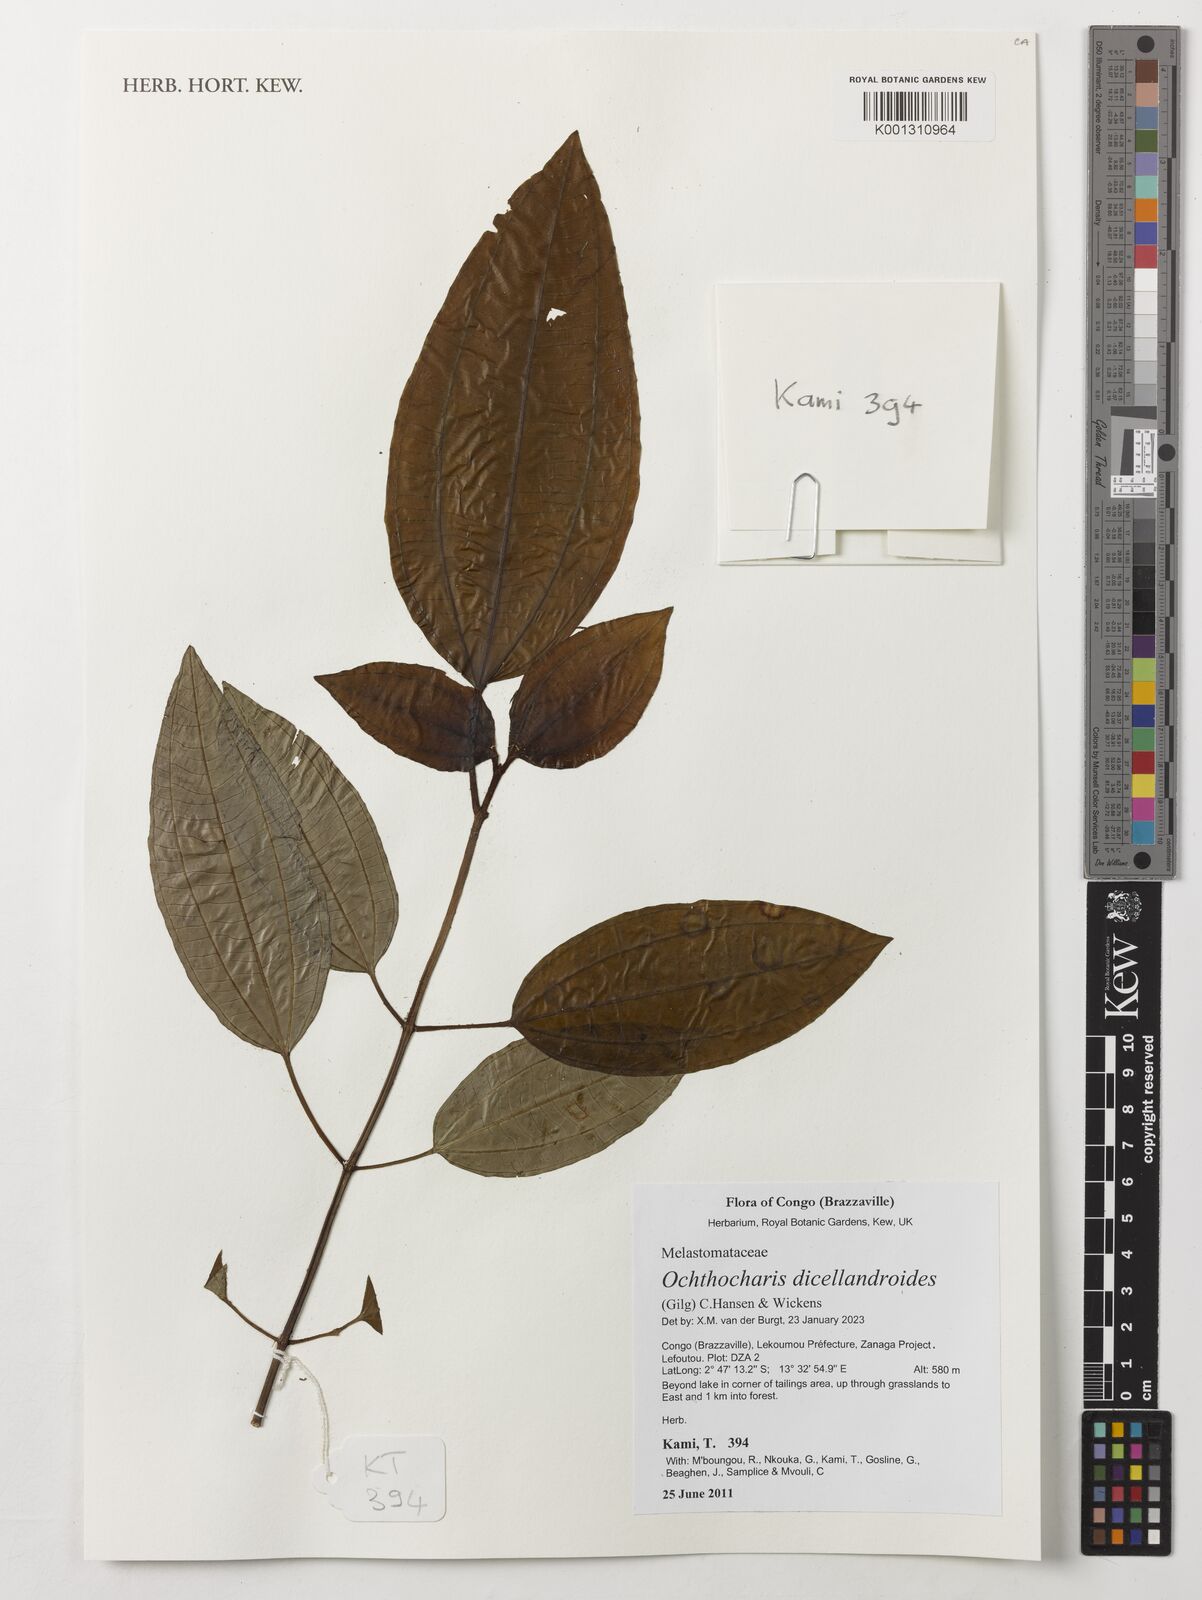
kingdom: Plantae
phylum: Tracheophyta
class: Magnoliopsida
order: Myrtales
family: Melastomataceae
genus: Ochthocharis
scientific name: Ochthocharis dicellandroides
